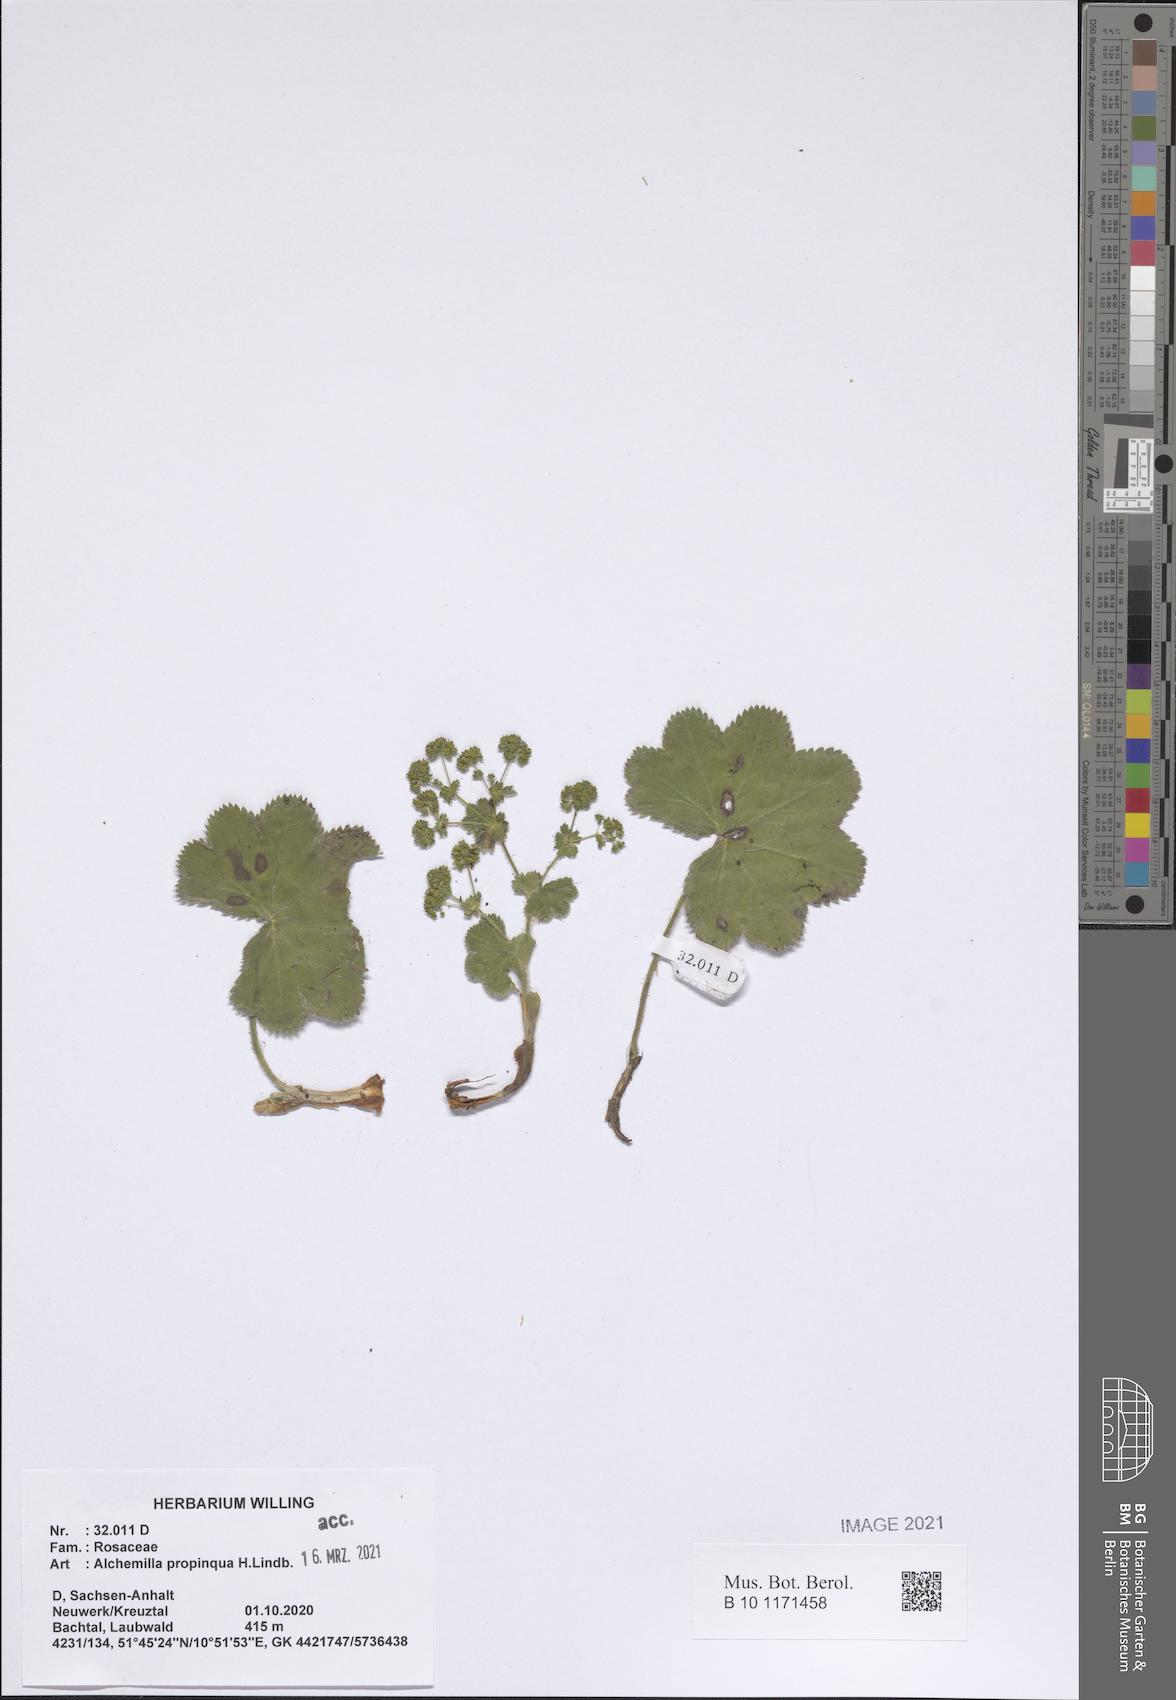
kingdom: Plantae
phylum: Tracheophyta
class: Magnoliopsida
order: Rosales
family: Rosaceae
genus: Alchemilla
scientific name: Alchemilla propinqua
